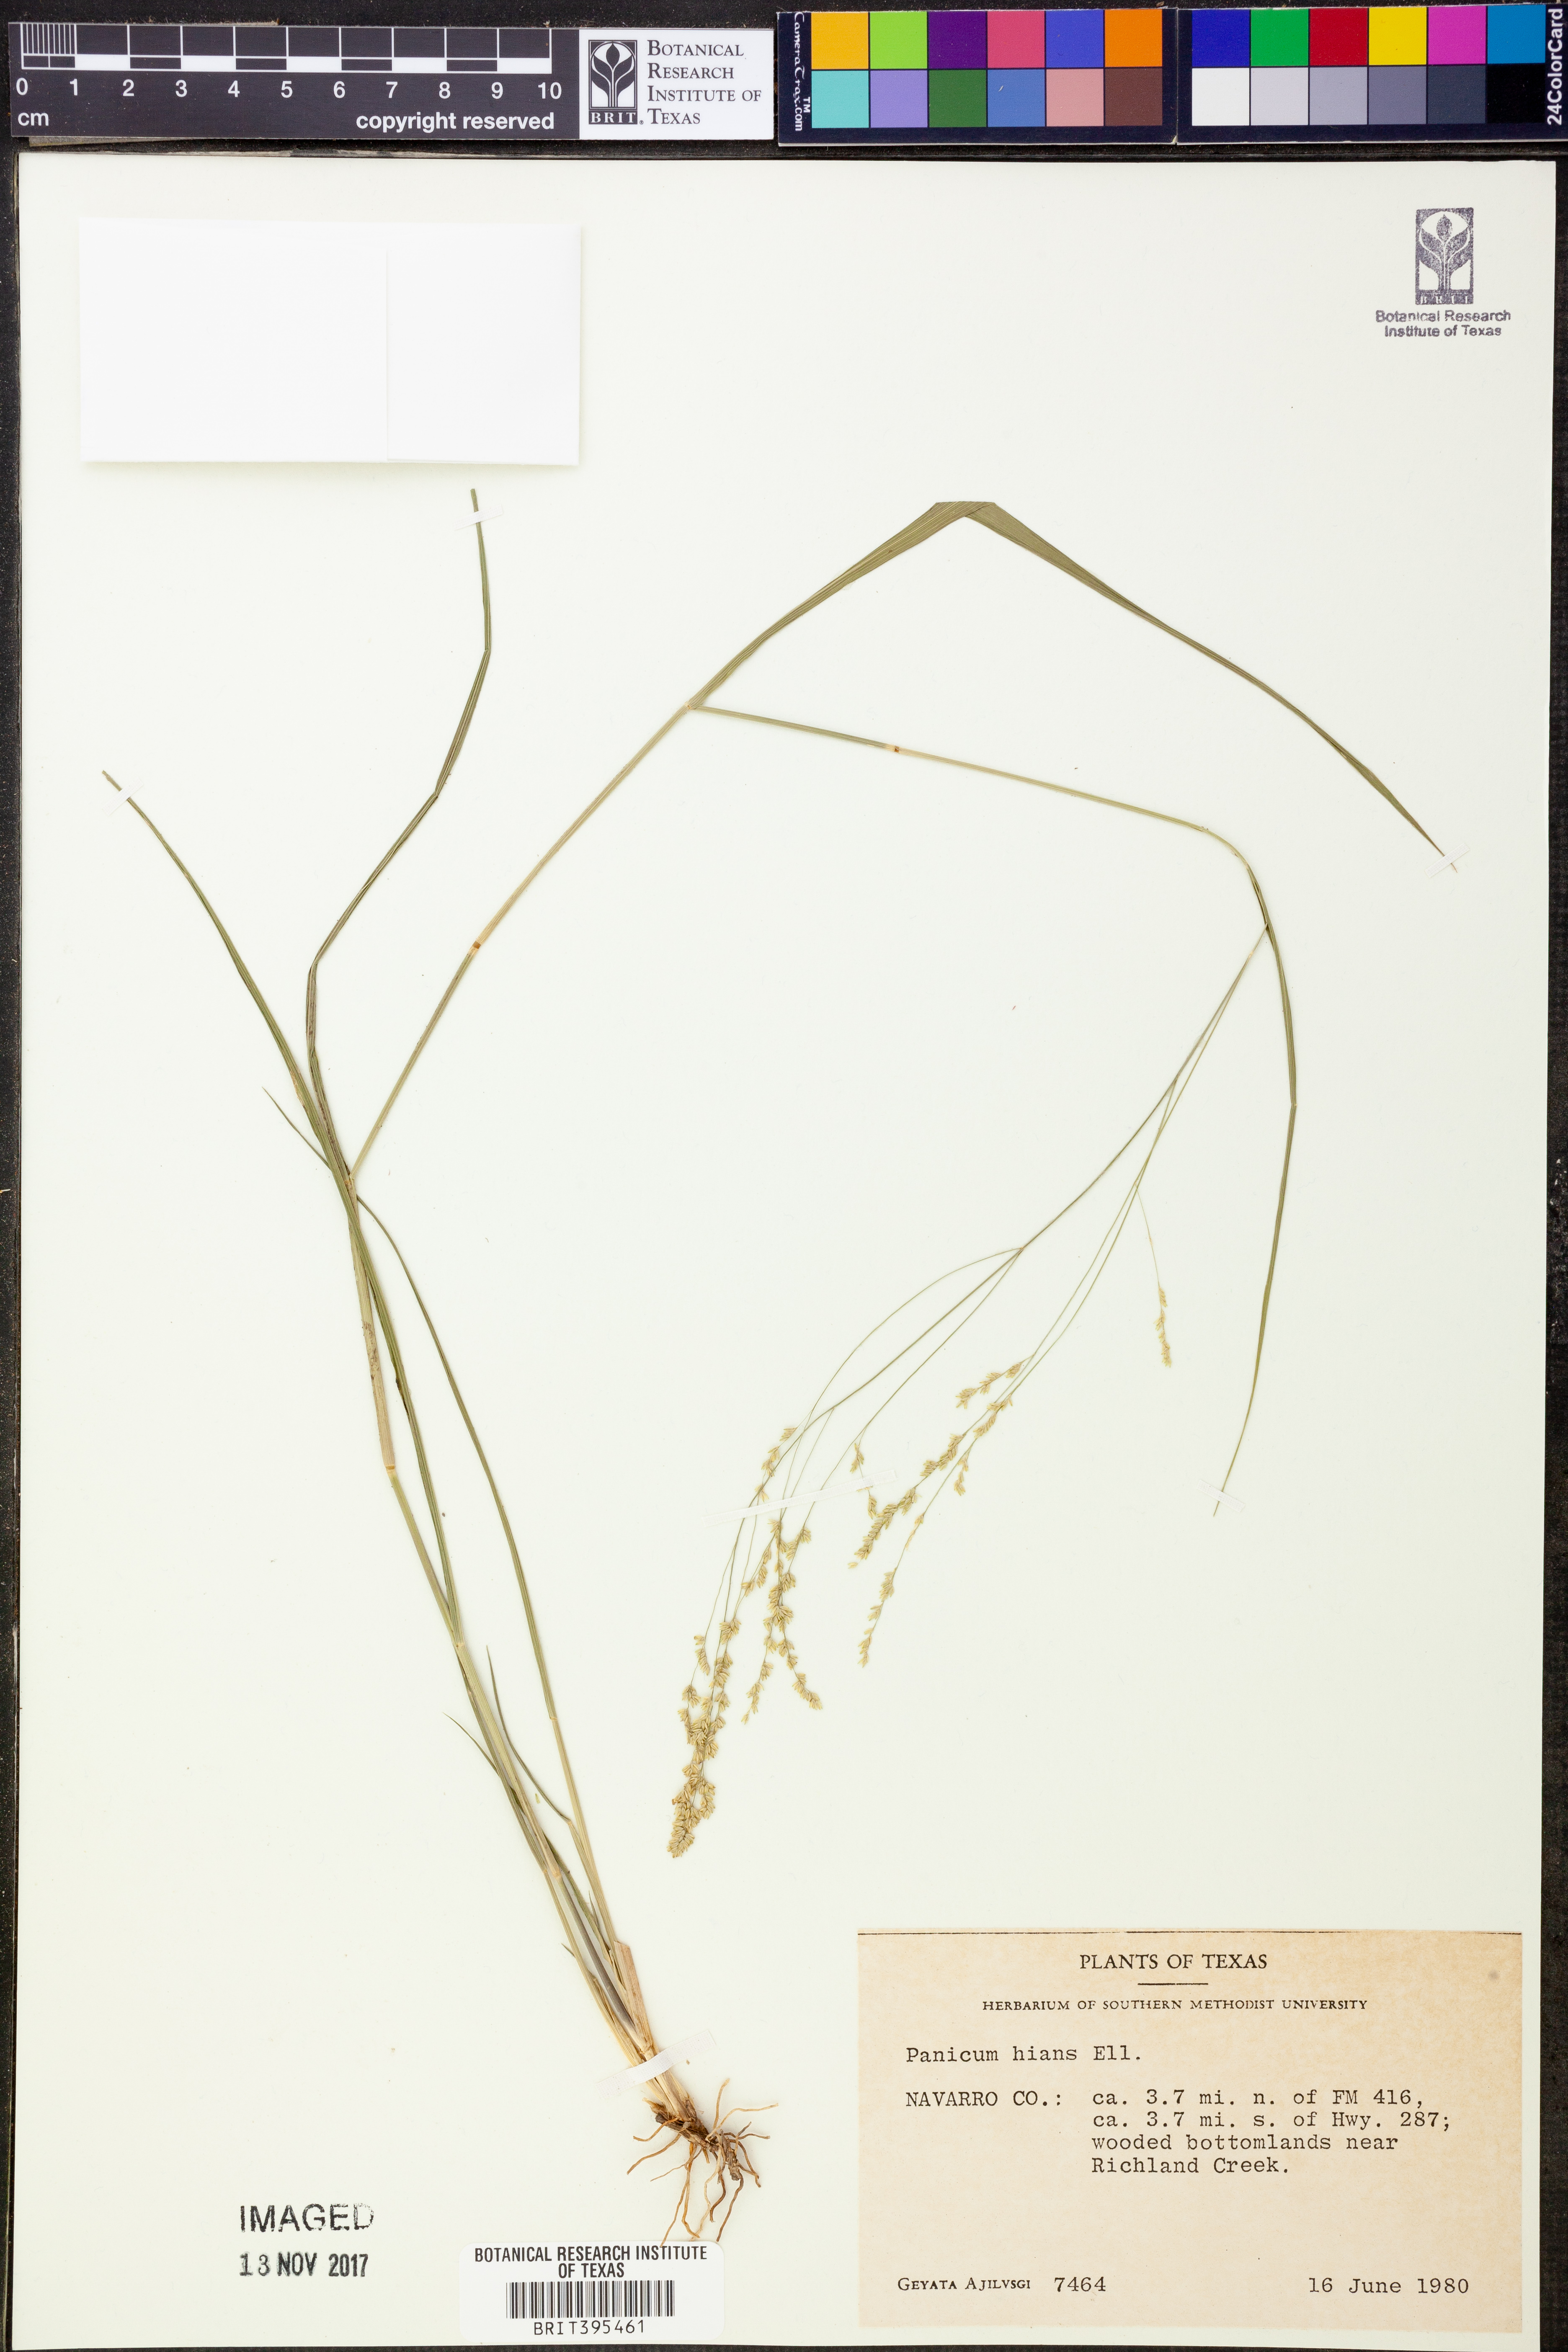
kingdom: Plantae
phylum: Tracheophyta
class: Liliopsida
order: Poales
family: Poaceae
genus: Coleataenia
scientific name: Coleataenia stenodes
